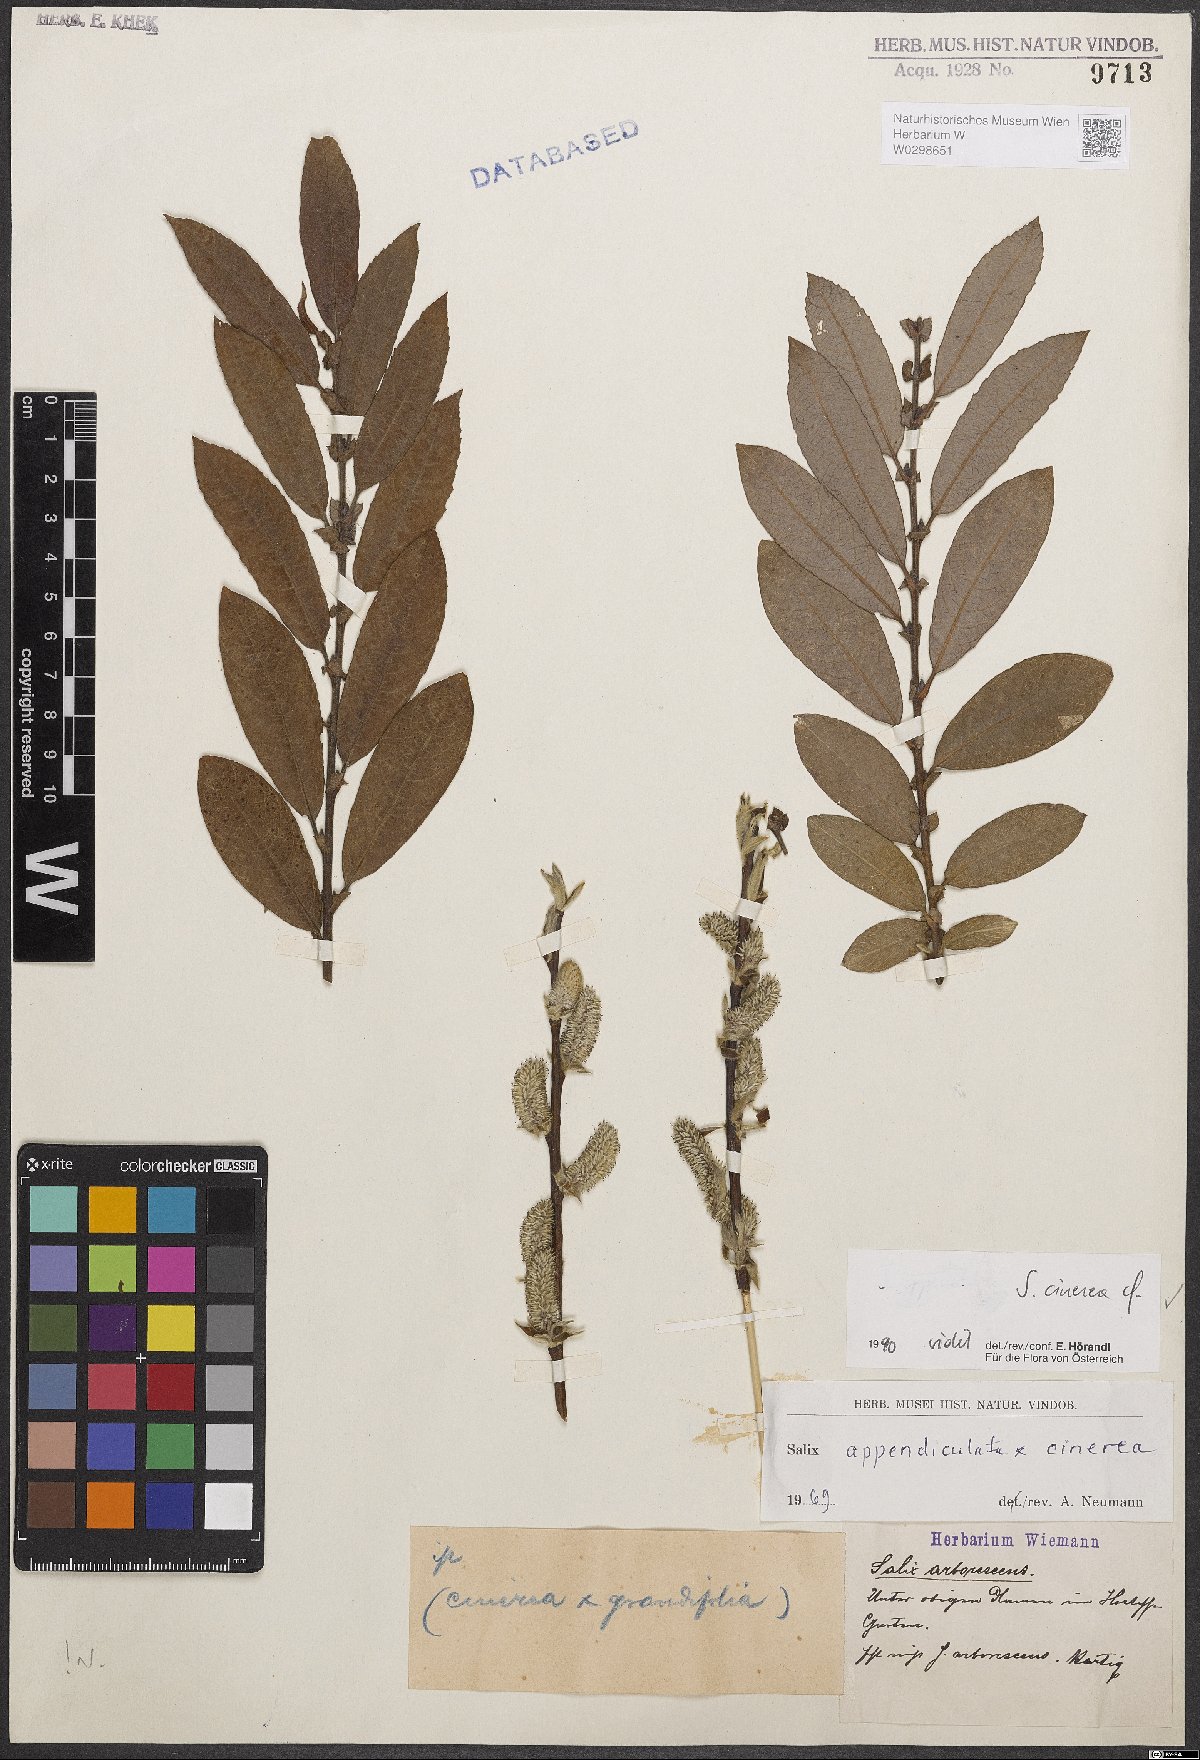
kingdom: Plantae
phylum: Tracheophyta
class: Magnoliopsida
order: Malpighiales
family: Salicaceae
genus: Salix
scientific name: Salix cinerea
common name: Common sallow
